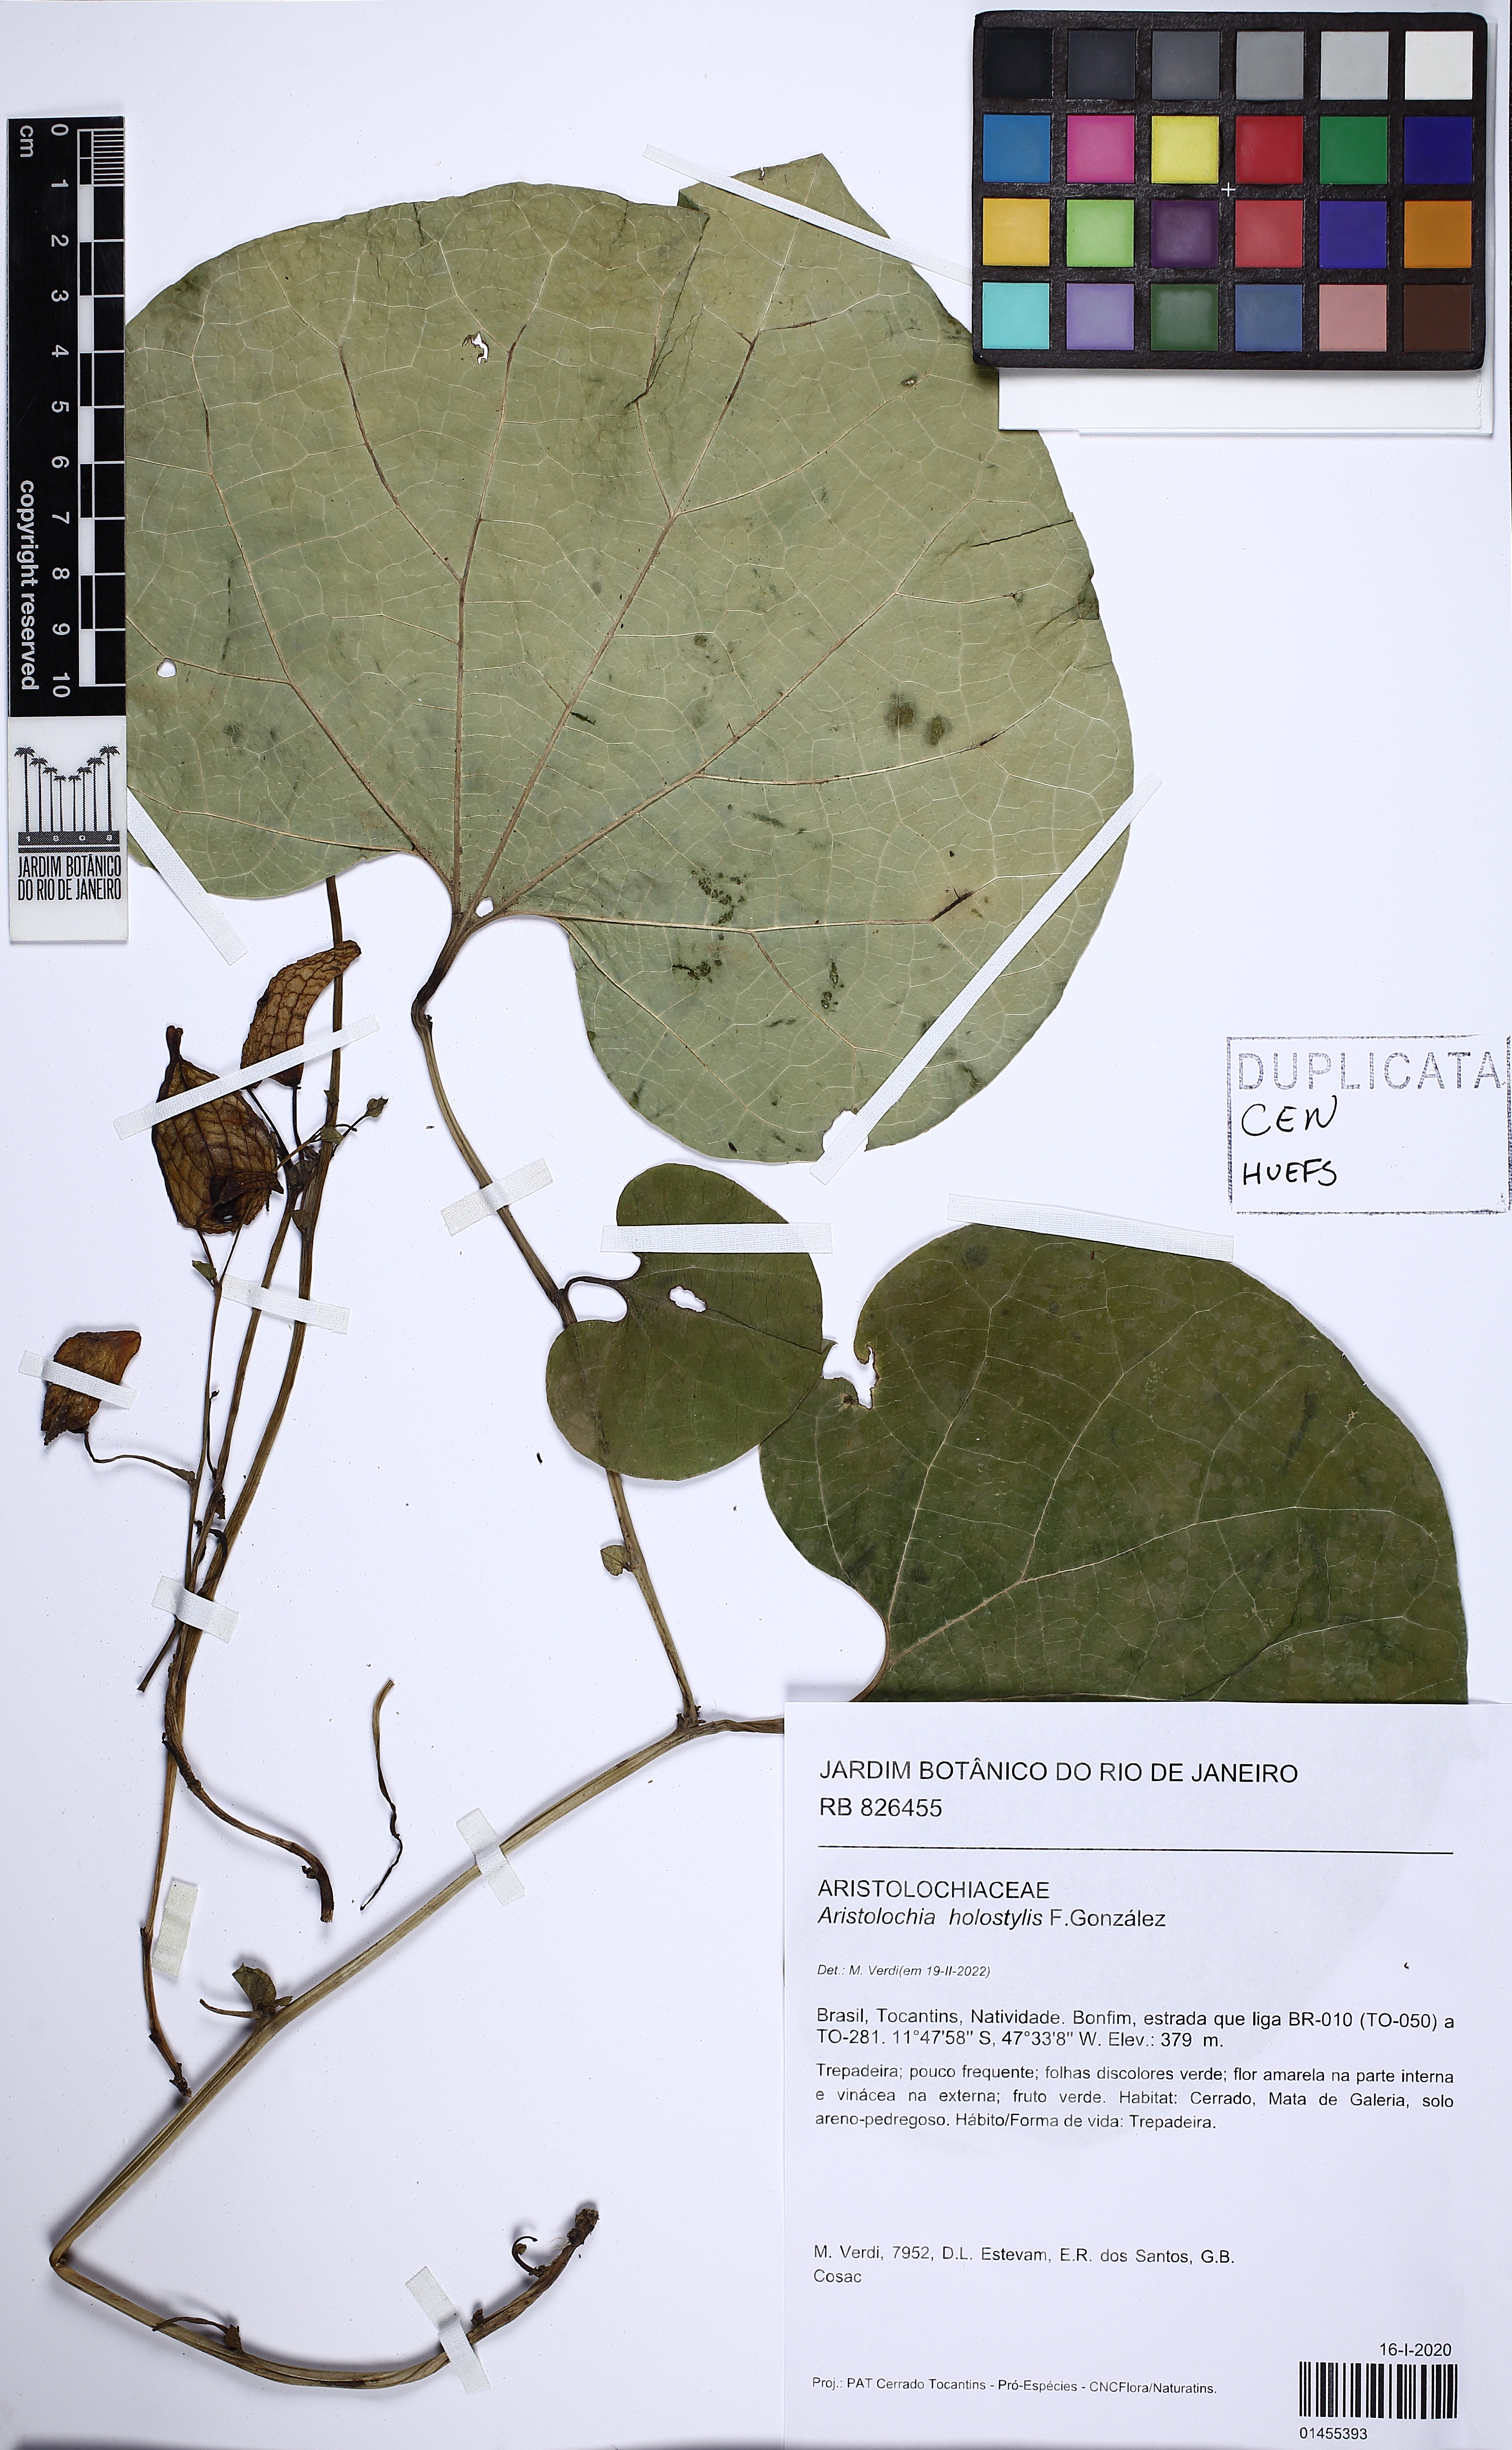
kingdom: Plantae
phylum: Tracheophyta
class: Magnoliopsida
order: Piperales
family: Aristolochiaceae
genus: Aristolochia
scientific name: Aristolochia holostylis
